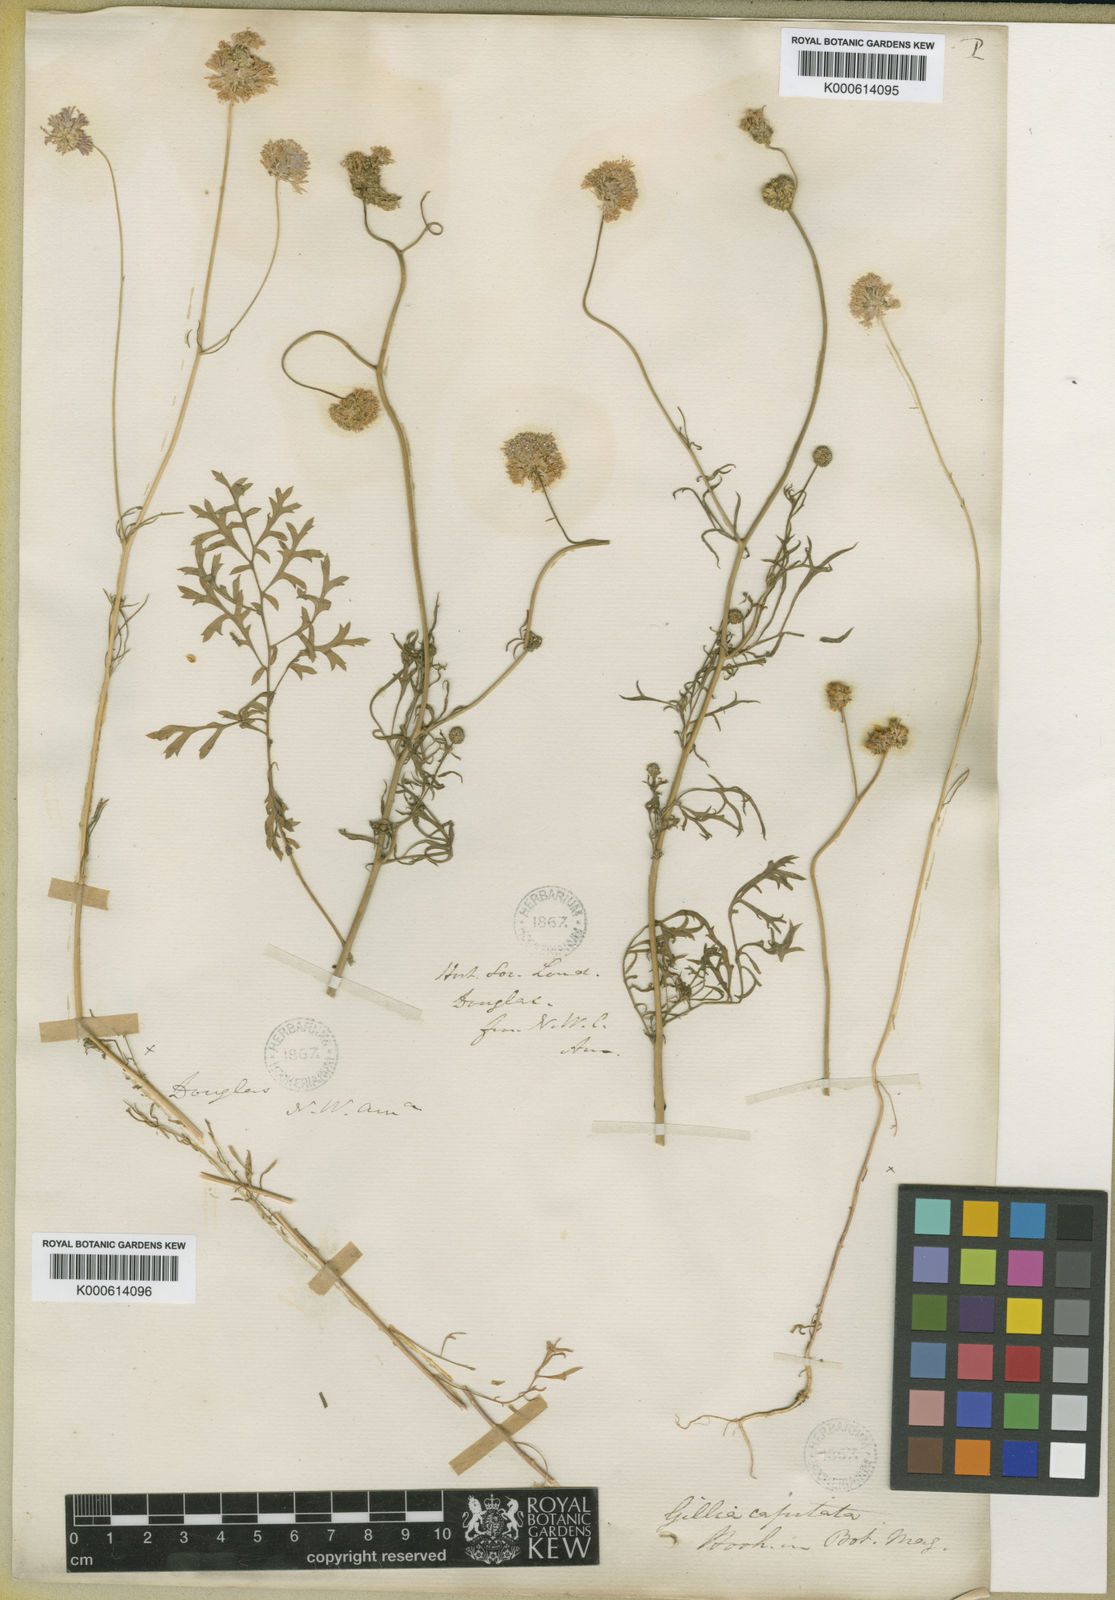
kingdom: Plantae
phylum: Tracheophyta
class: Magnoliopsida
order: Ericales
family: Polemoniaceae
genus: Gilia
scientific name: Gilia capitata
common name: Bluehead gilia
